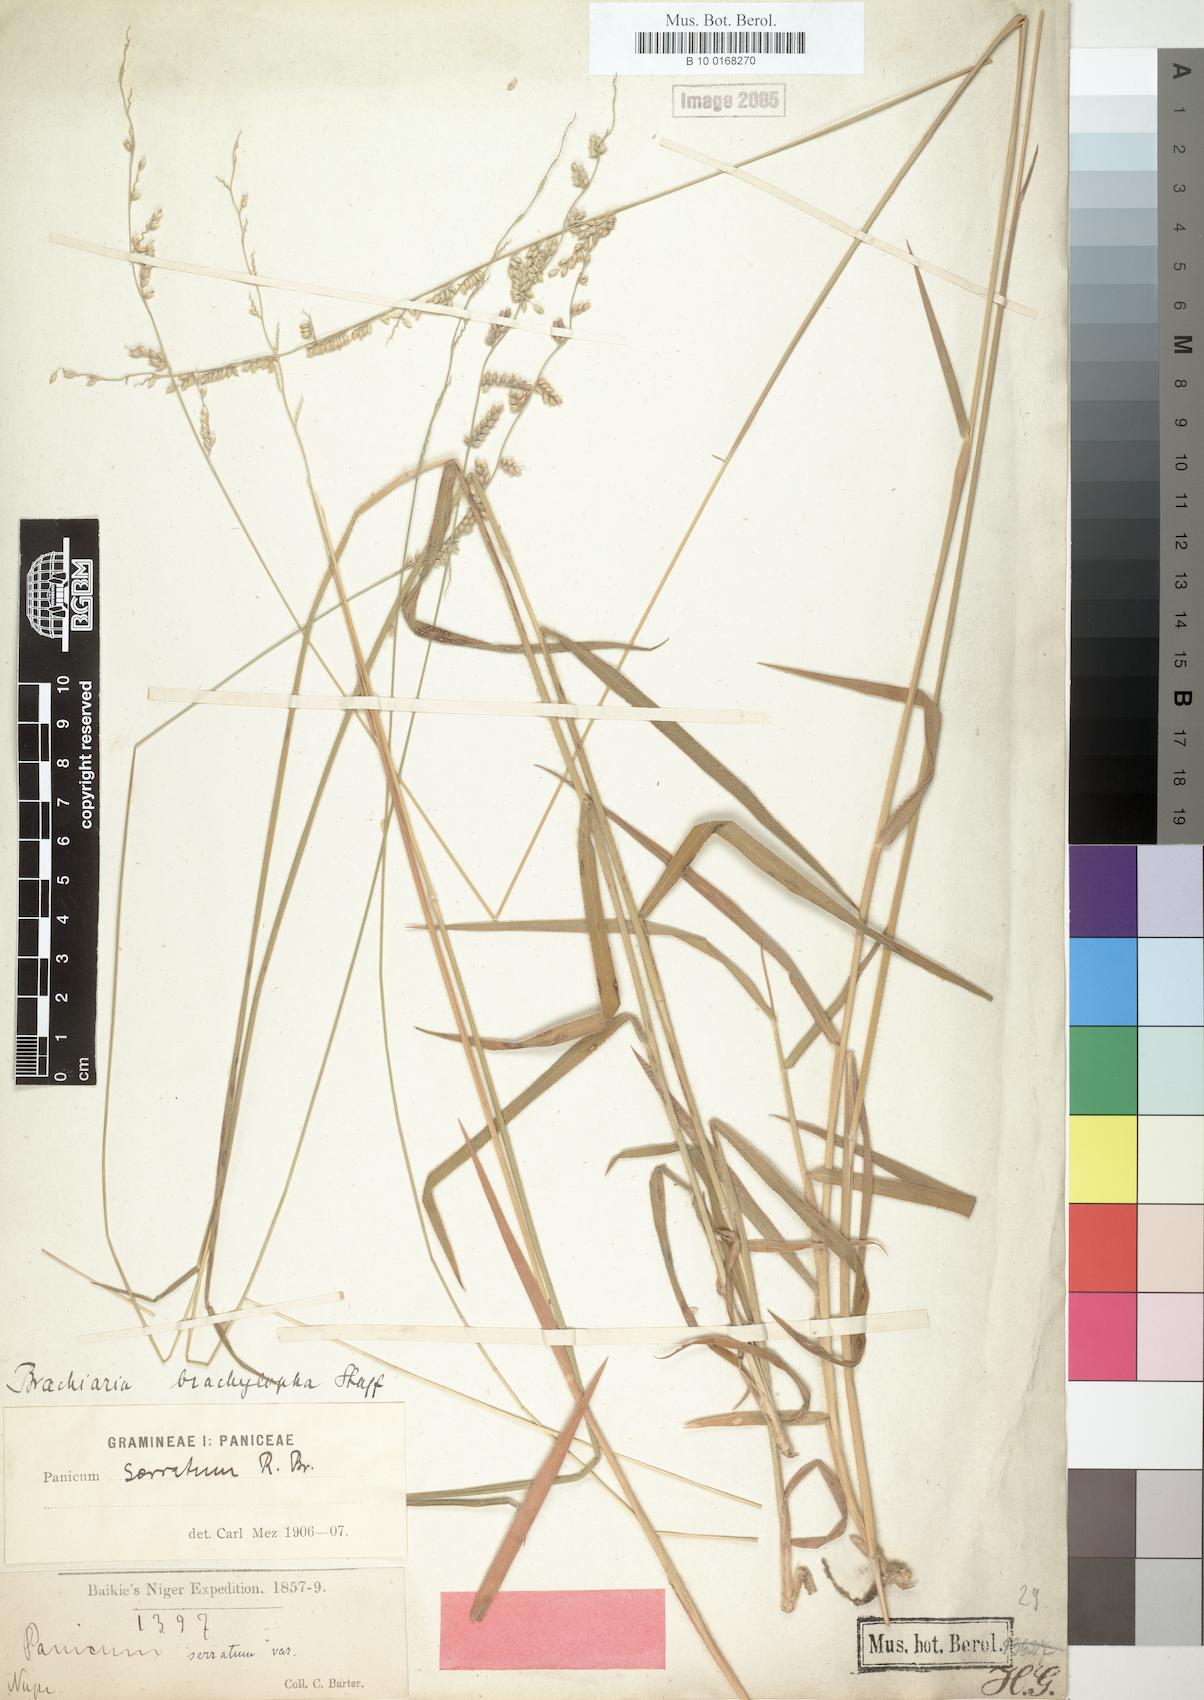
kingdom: Plantae
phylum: Tracheophyta
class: Liliopsida
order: Poales
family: Poaceae
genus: Urochloa
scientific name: Urochloa serrata
